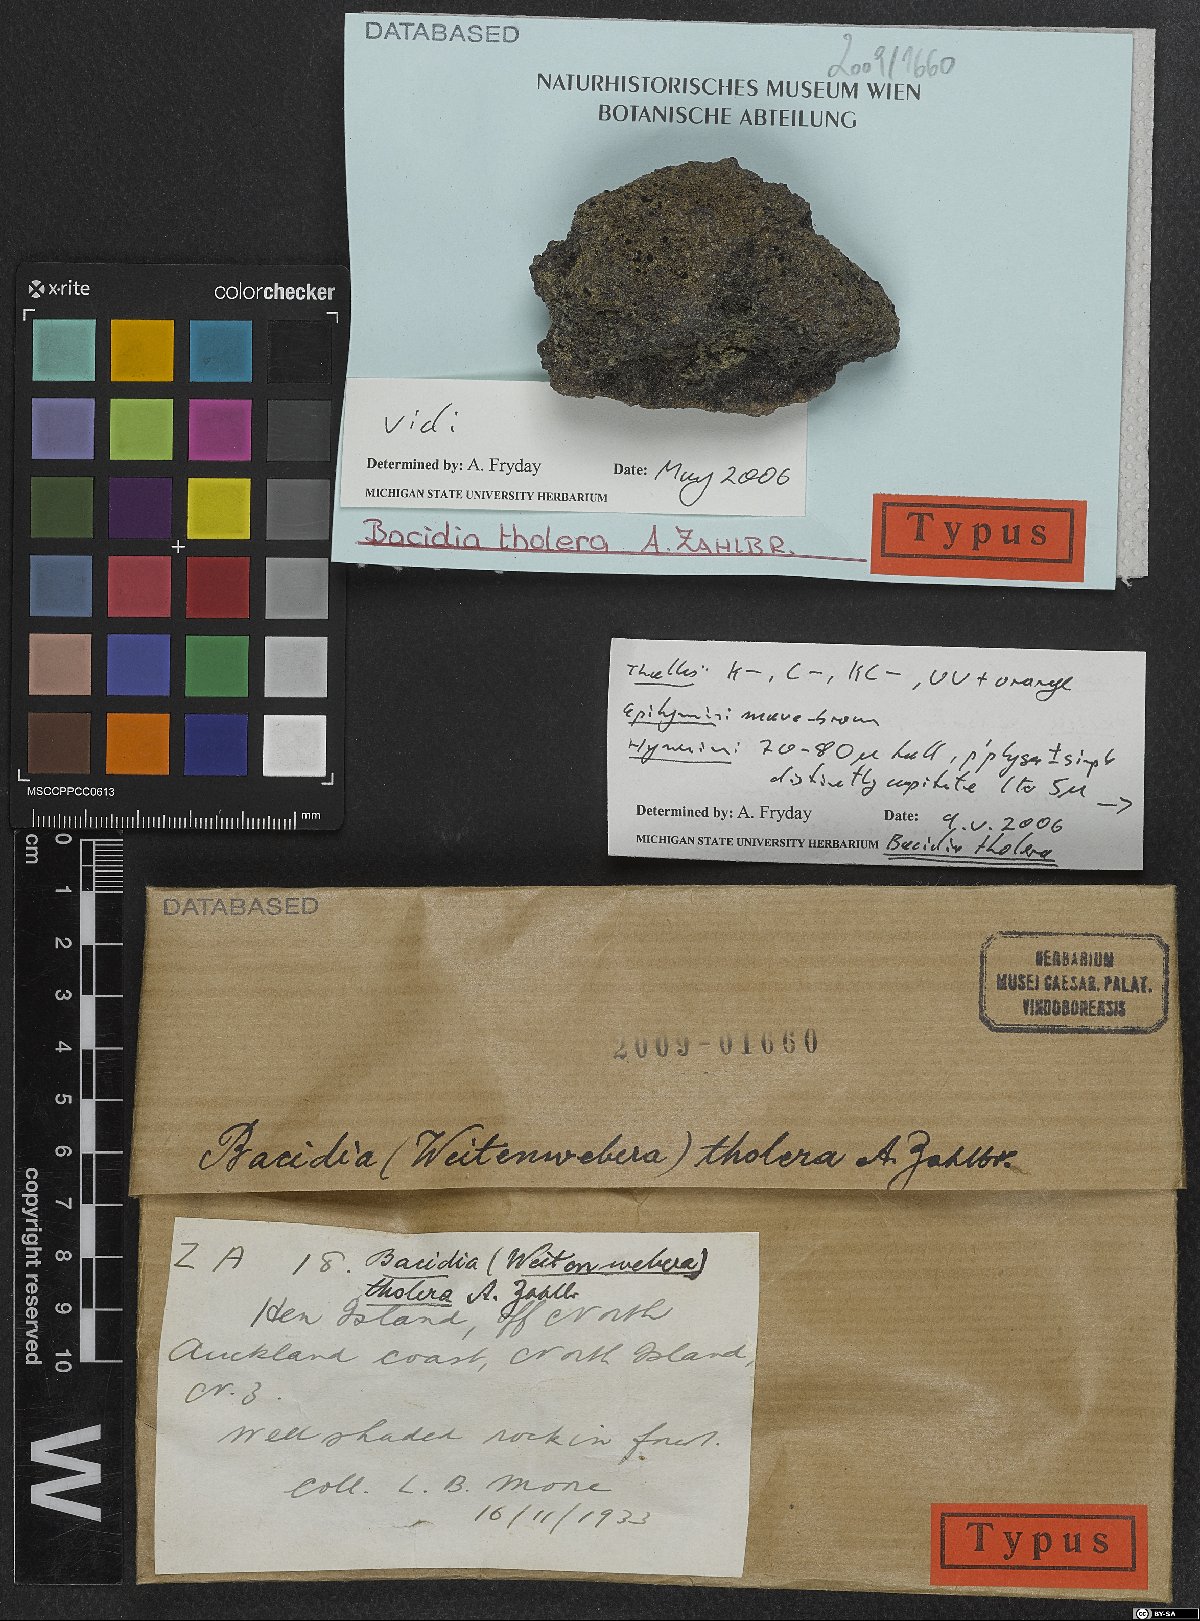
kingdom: Fungi
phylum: Ascomycota
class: Lecanoromycetes
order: Lecanorales
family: Ramalinaceae
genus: Bacidia
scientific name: Bacidia
